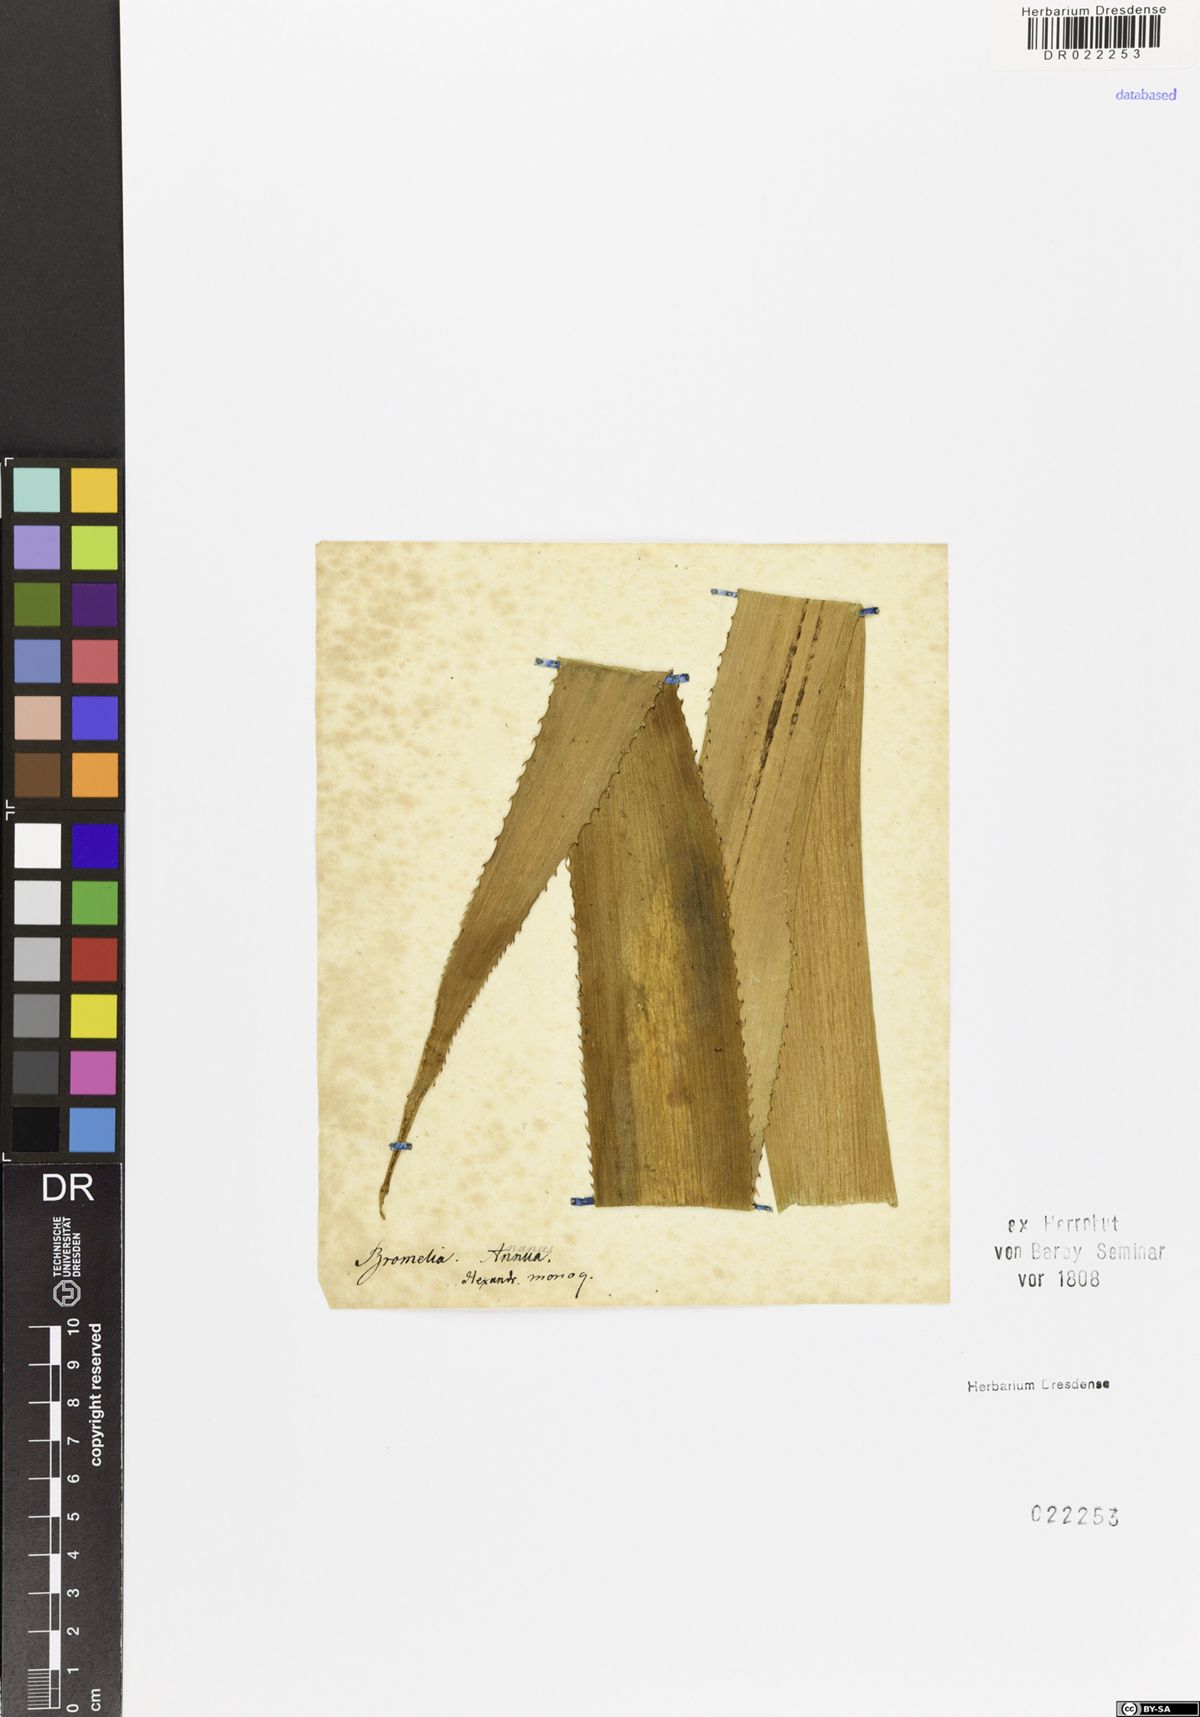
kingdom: Plantae
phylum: Tracheophyta
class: Liliopsida
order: Poales
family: Bromeliaceae
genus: Ananas
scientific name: Ananas comosus
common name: Pineapple
